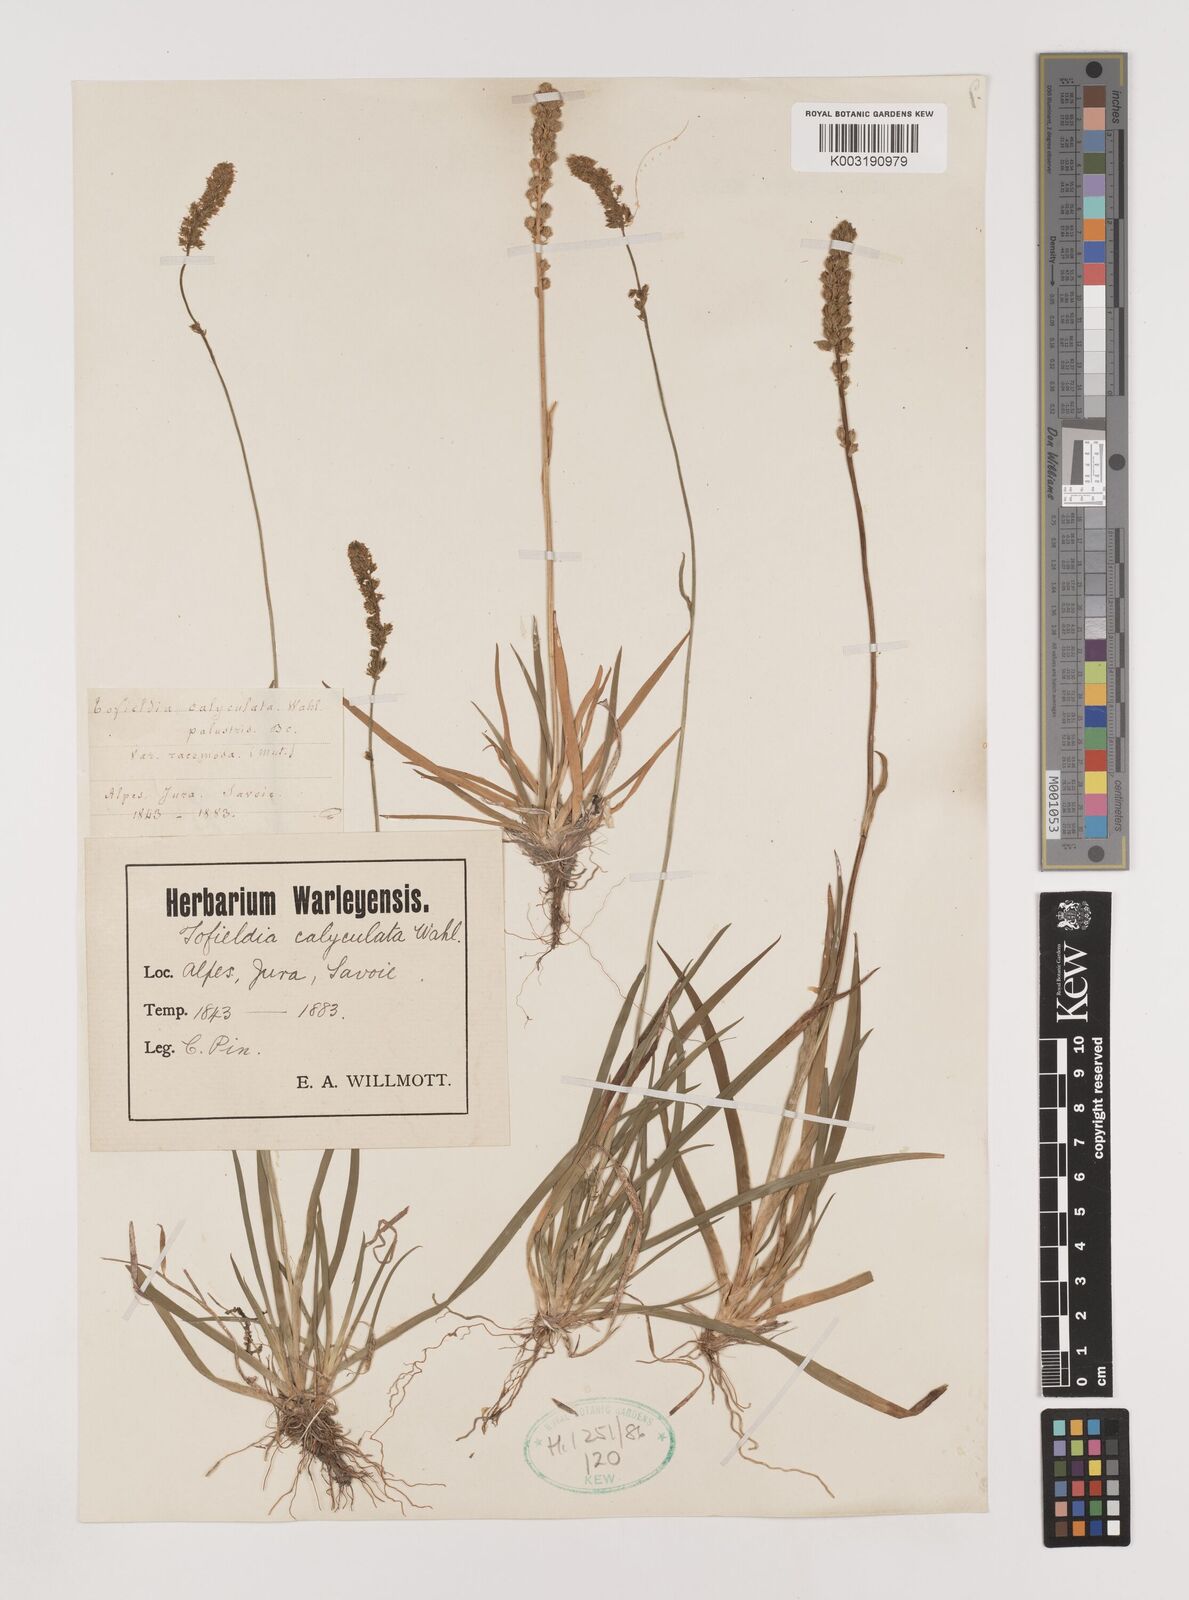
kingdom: Plantae
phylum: Tracheophyta
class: Liliopsida
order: Alismatales
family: Tofieldiaceae
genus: Tofieldia
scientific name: Tofieldia calyculata
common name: German-asphodel
